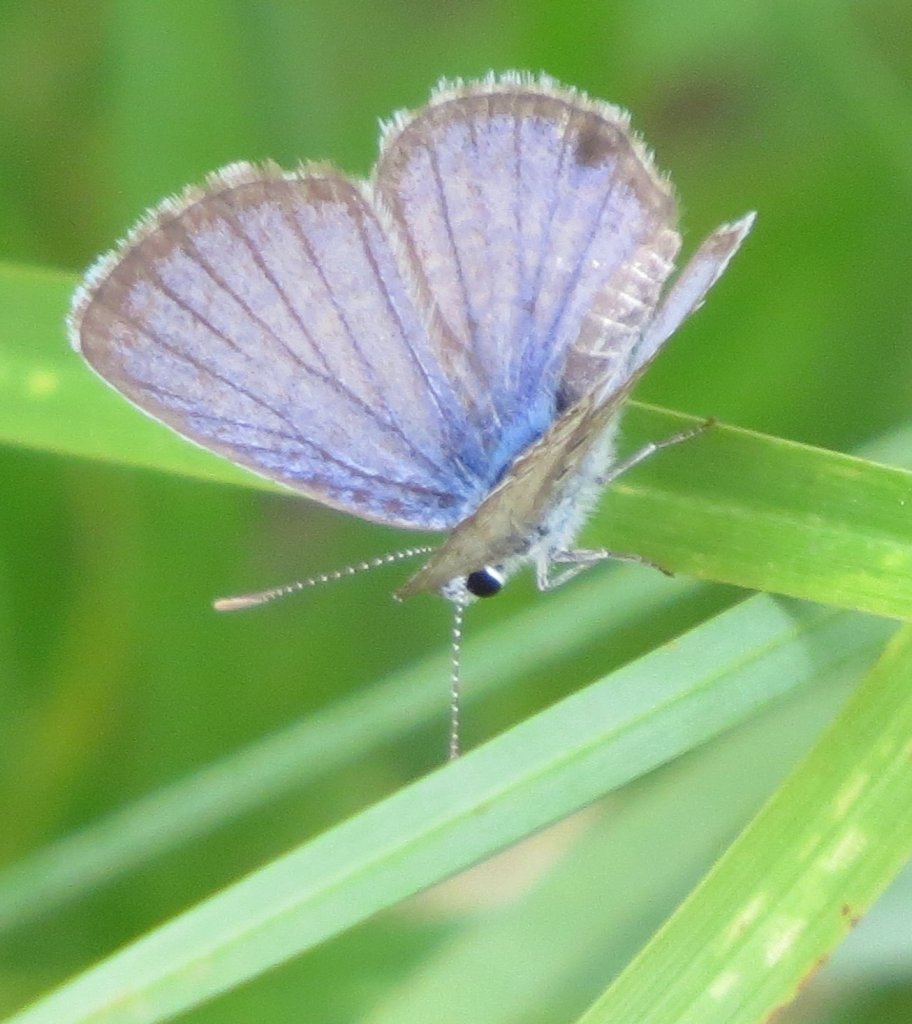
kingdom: Animalia
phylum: Arthropoda
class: Insecta
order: Lepidoptera
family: Lycaenidae
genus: Hemiargus
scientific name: Hemiargus ceraunus
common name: Ceraunus Blue
